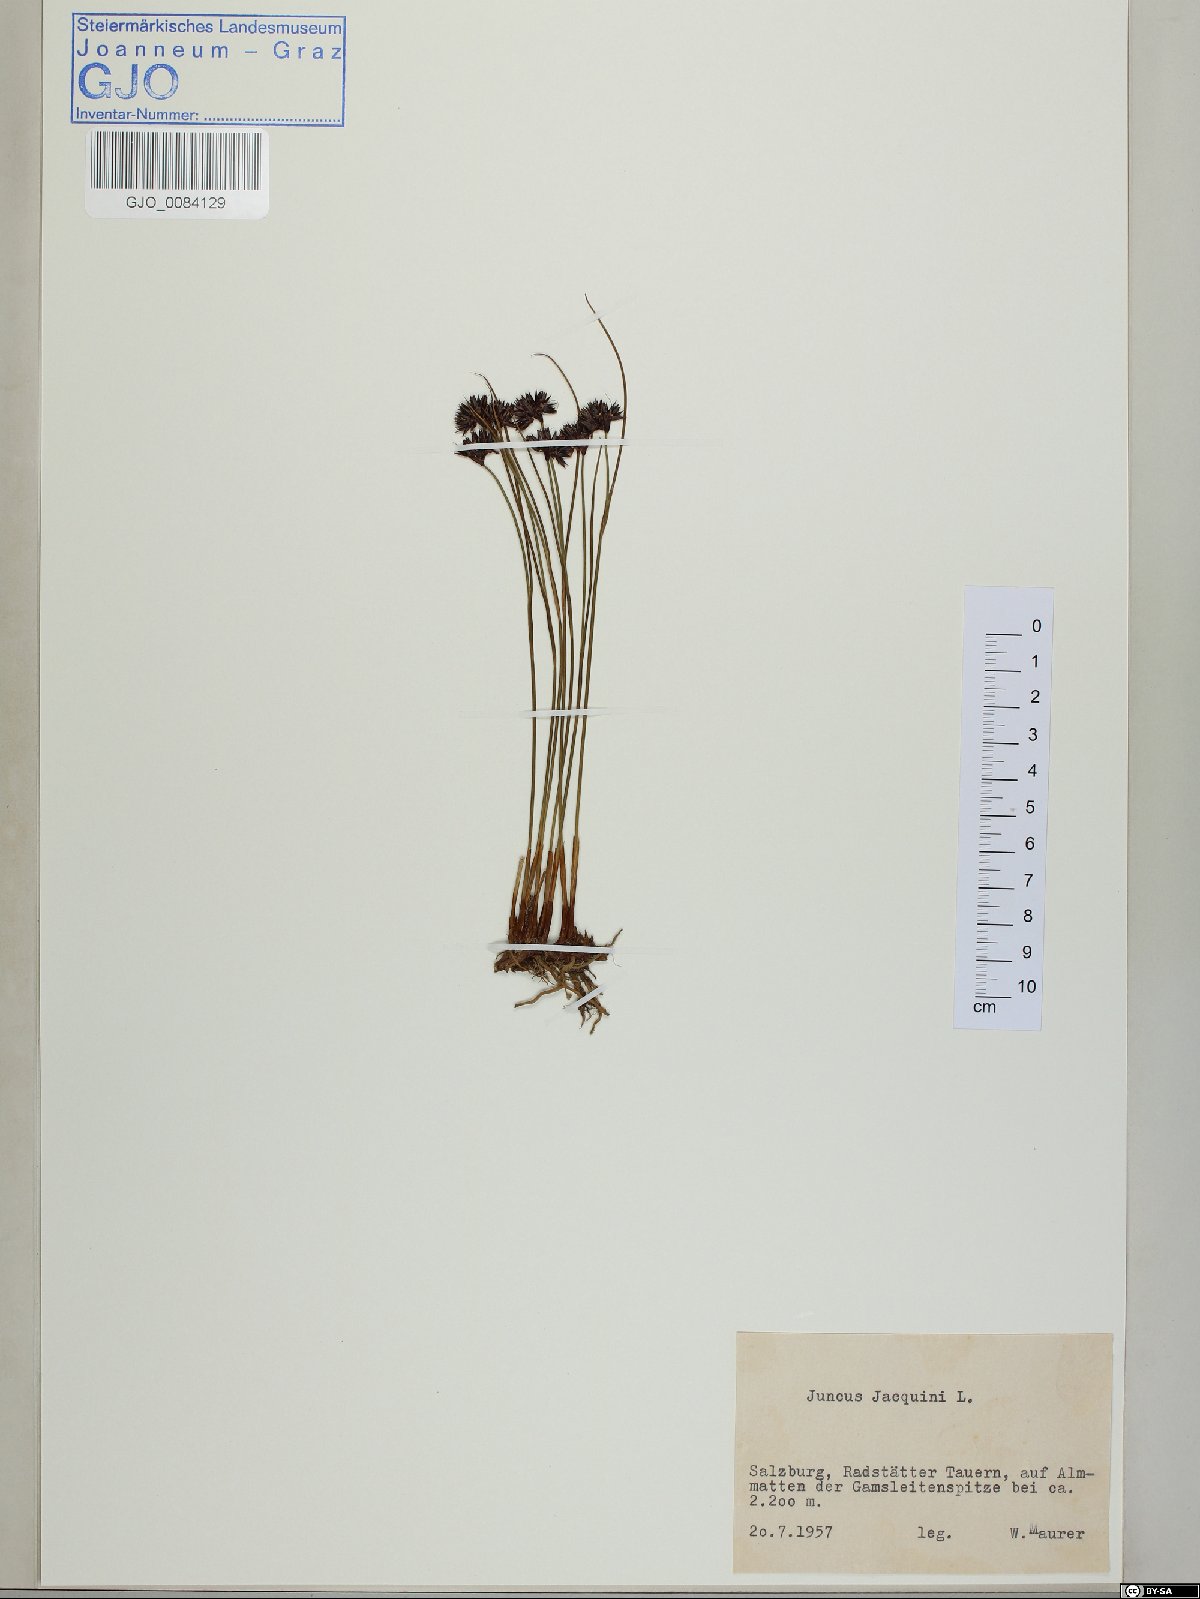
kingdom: Plantae
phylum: Tracheophyta
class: Liliopsida
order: Poales
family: Juncaceae
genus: Juncus
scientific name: Juncus jacquinii
